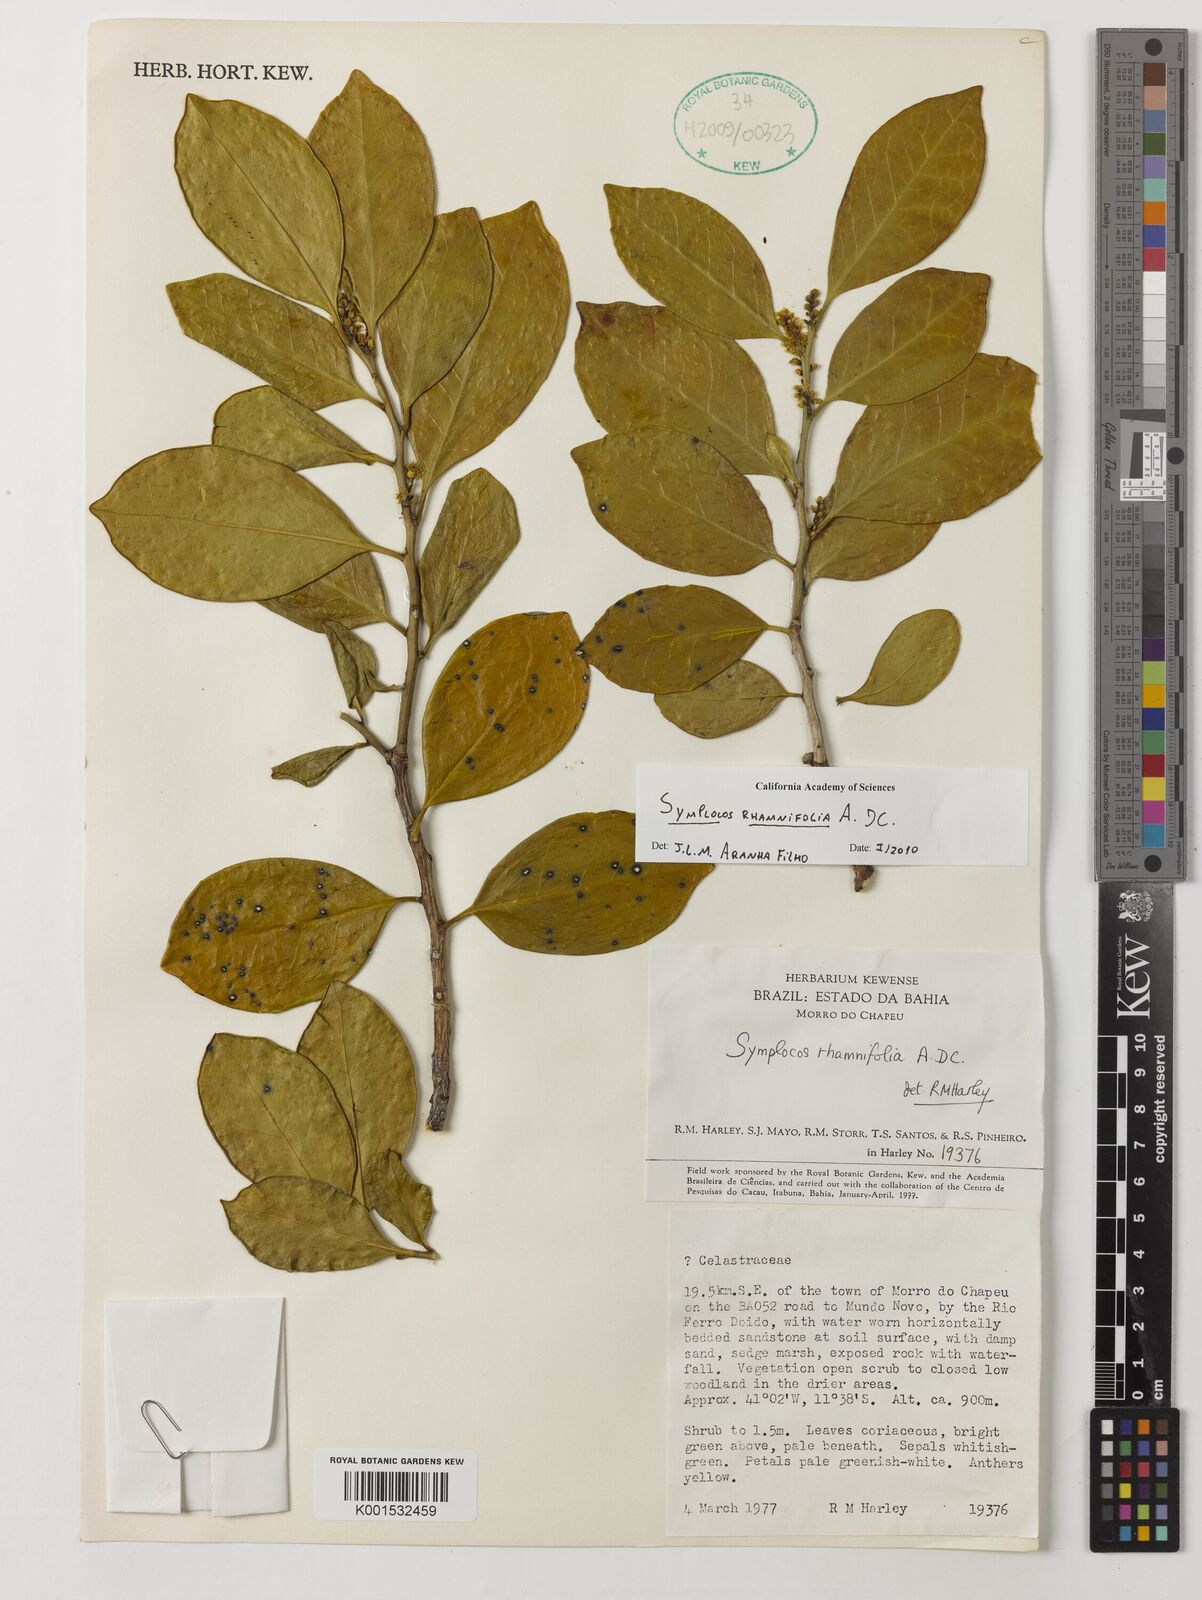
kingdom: Plantae
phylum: Tracheophyta
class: Magnoliopsida
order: Ericales
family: Symplocaceae
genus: Symplocos
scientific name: Symplocos rhamnifolia
